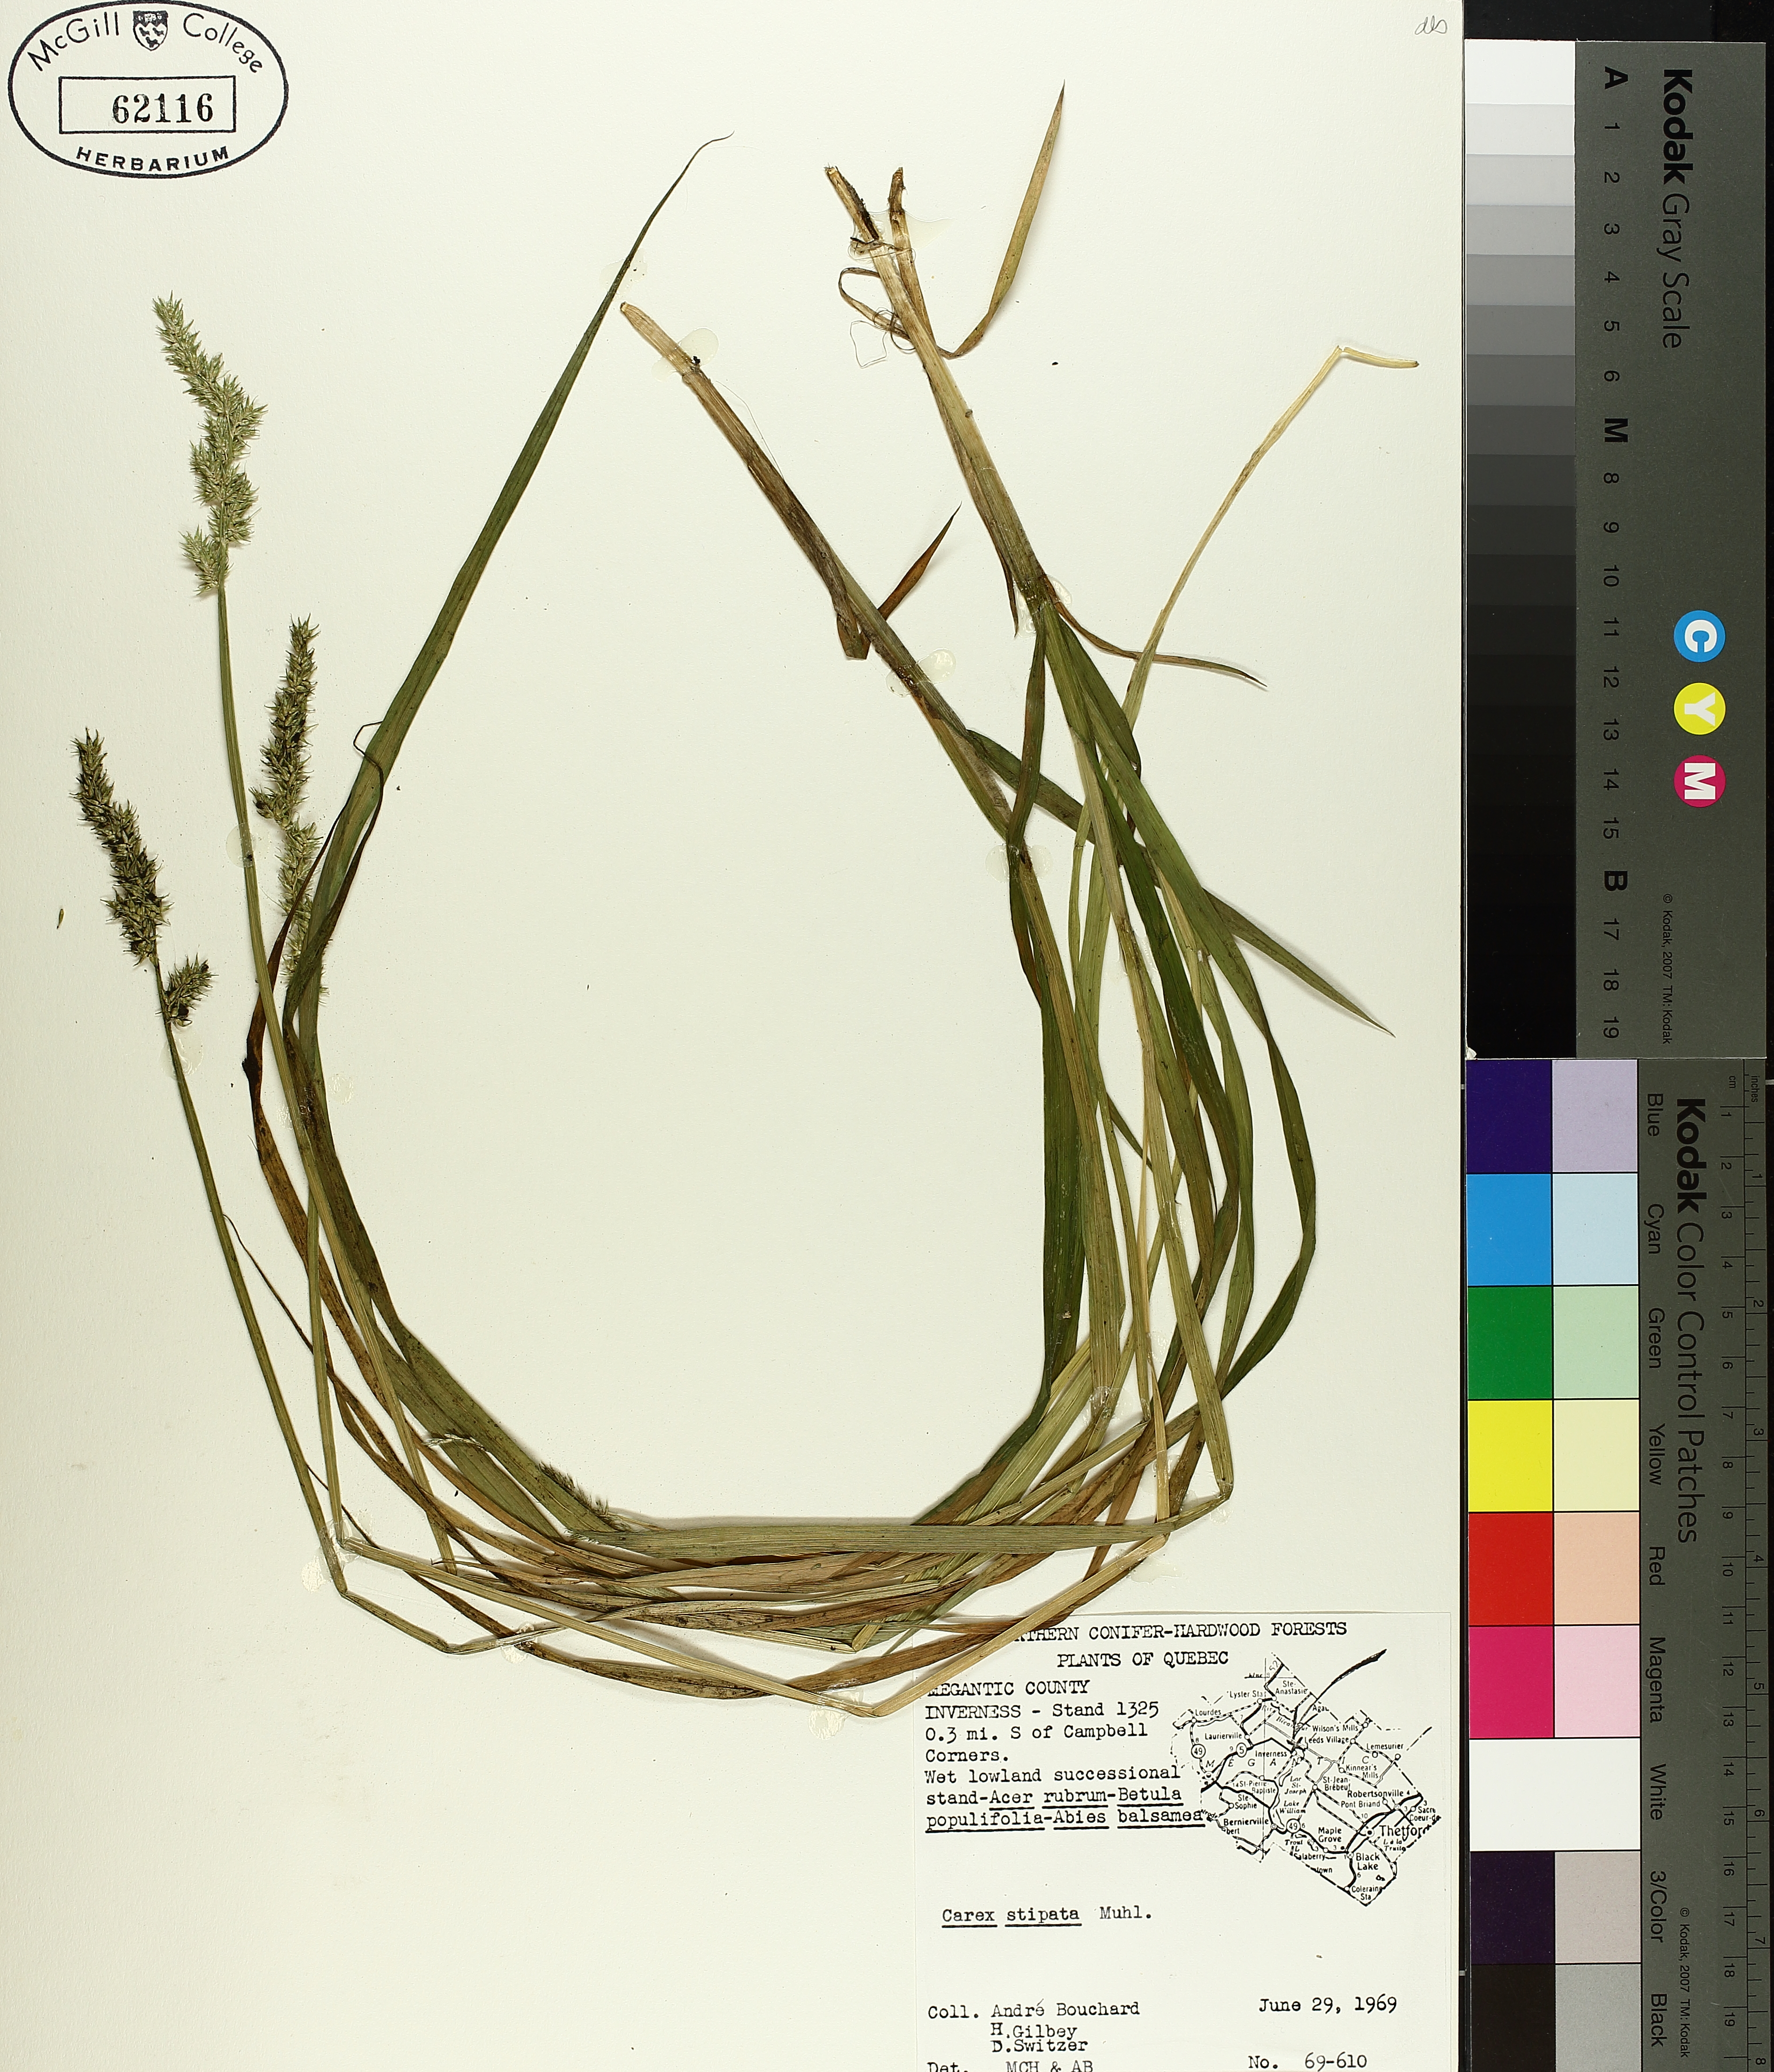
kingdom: Plantae
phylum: Tracheophyta
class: Liliopsida
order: Poales
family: Cyperaceae
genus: Carex
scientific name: Carex stipata
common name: Awl-fruited sedge
